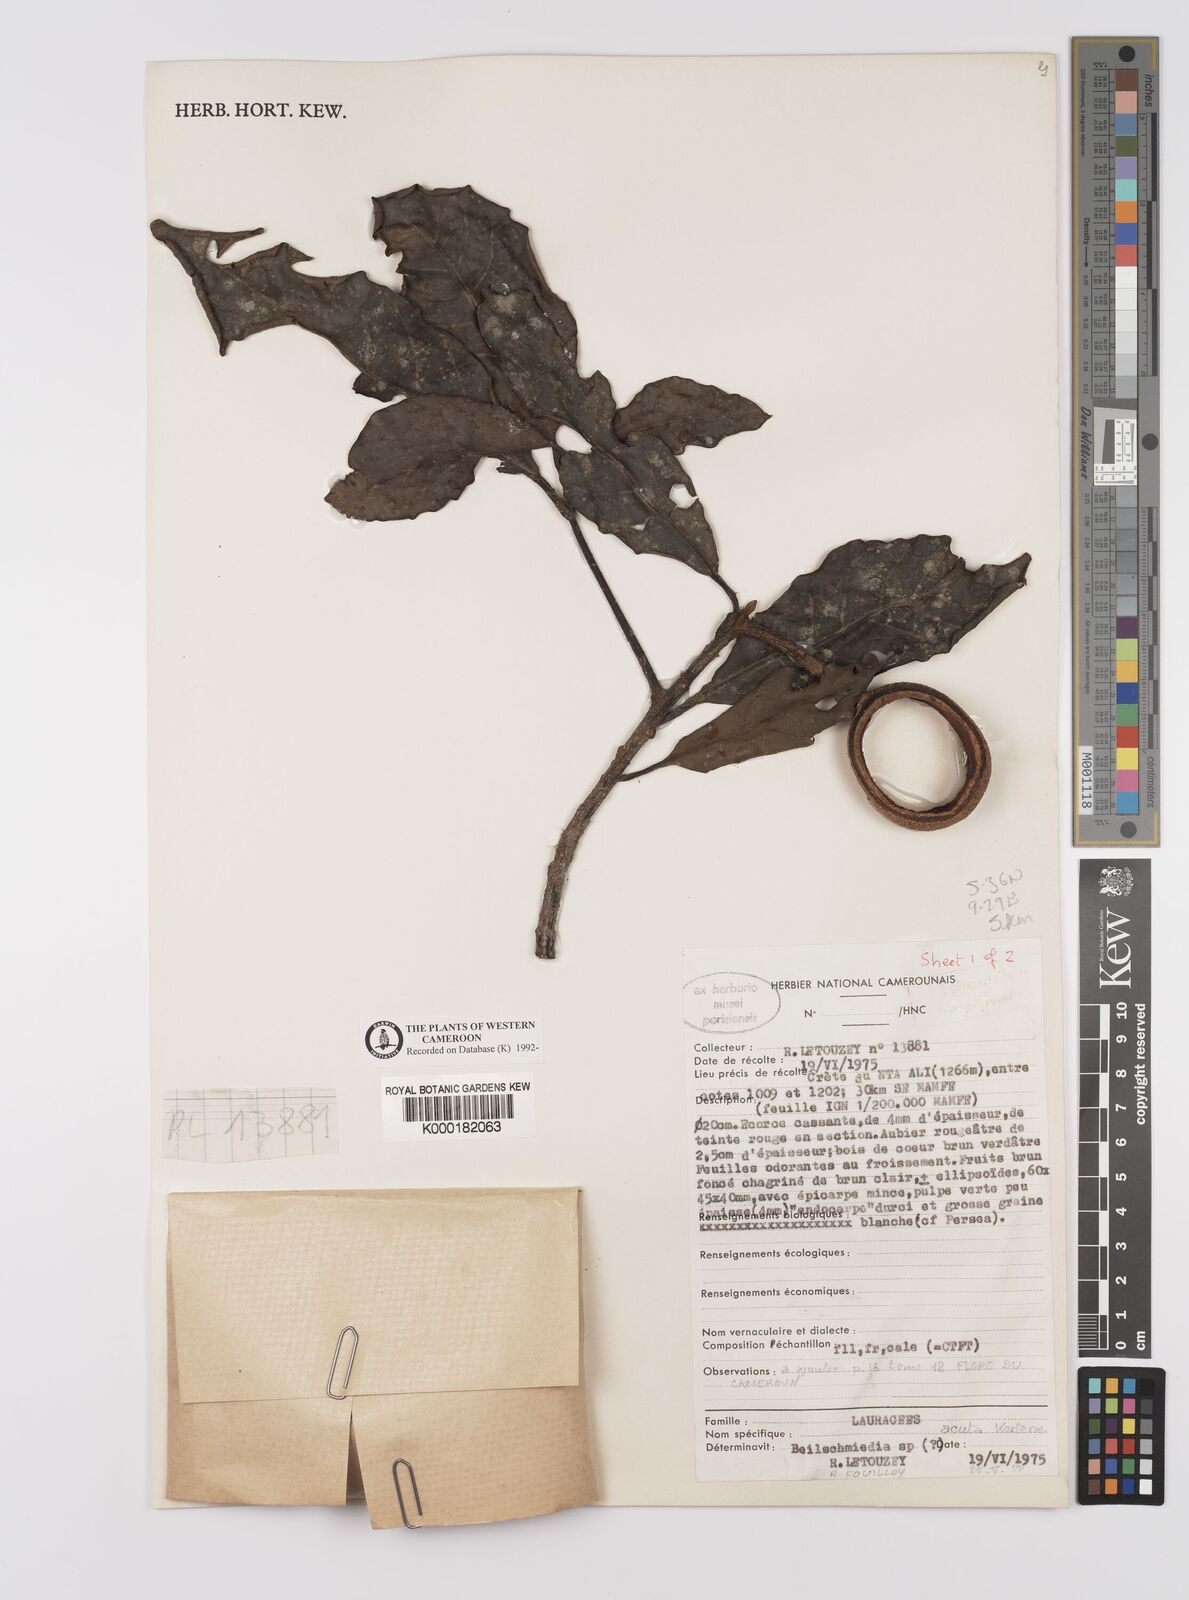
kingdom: Plantae
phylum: Tracheophyta
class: Magnoliopsida
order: Laurales
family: Lauraceae
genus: Beilschmiedia
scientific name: Beilschmiedia acuta
